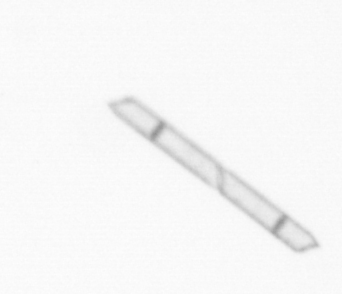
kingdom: Chromista
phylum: Ochrophyta
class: Bacillariophyceae
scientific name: Bacillariophyceae
